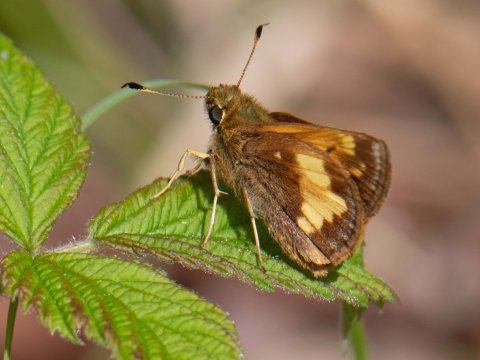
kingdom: Animalia
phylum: Arthropoda
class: Insecta
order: Lepidoptera
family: Hesperiidae
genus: Lon
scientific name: Lon hobomok
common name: Hobomok Skipper
